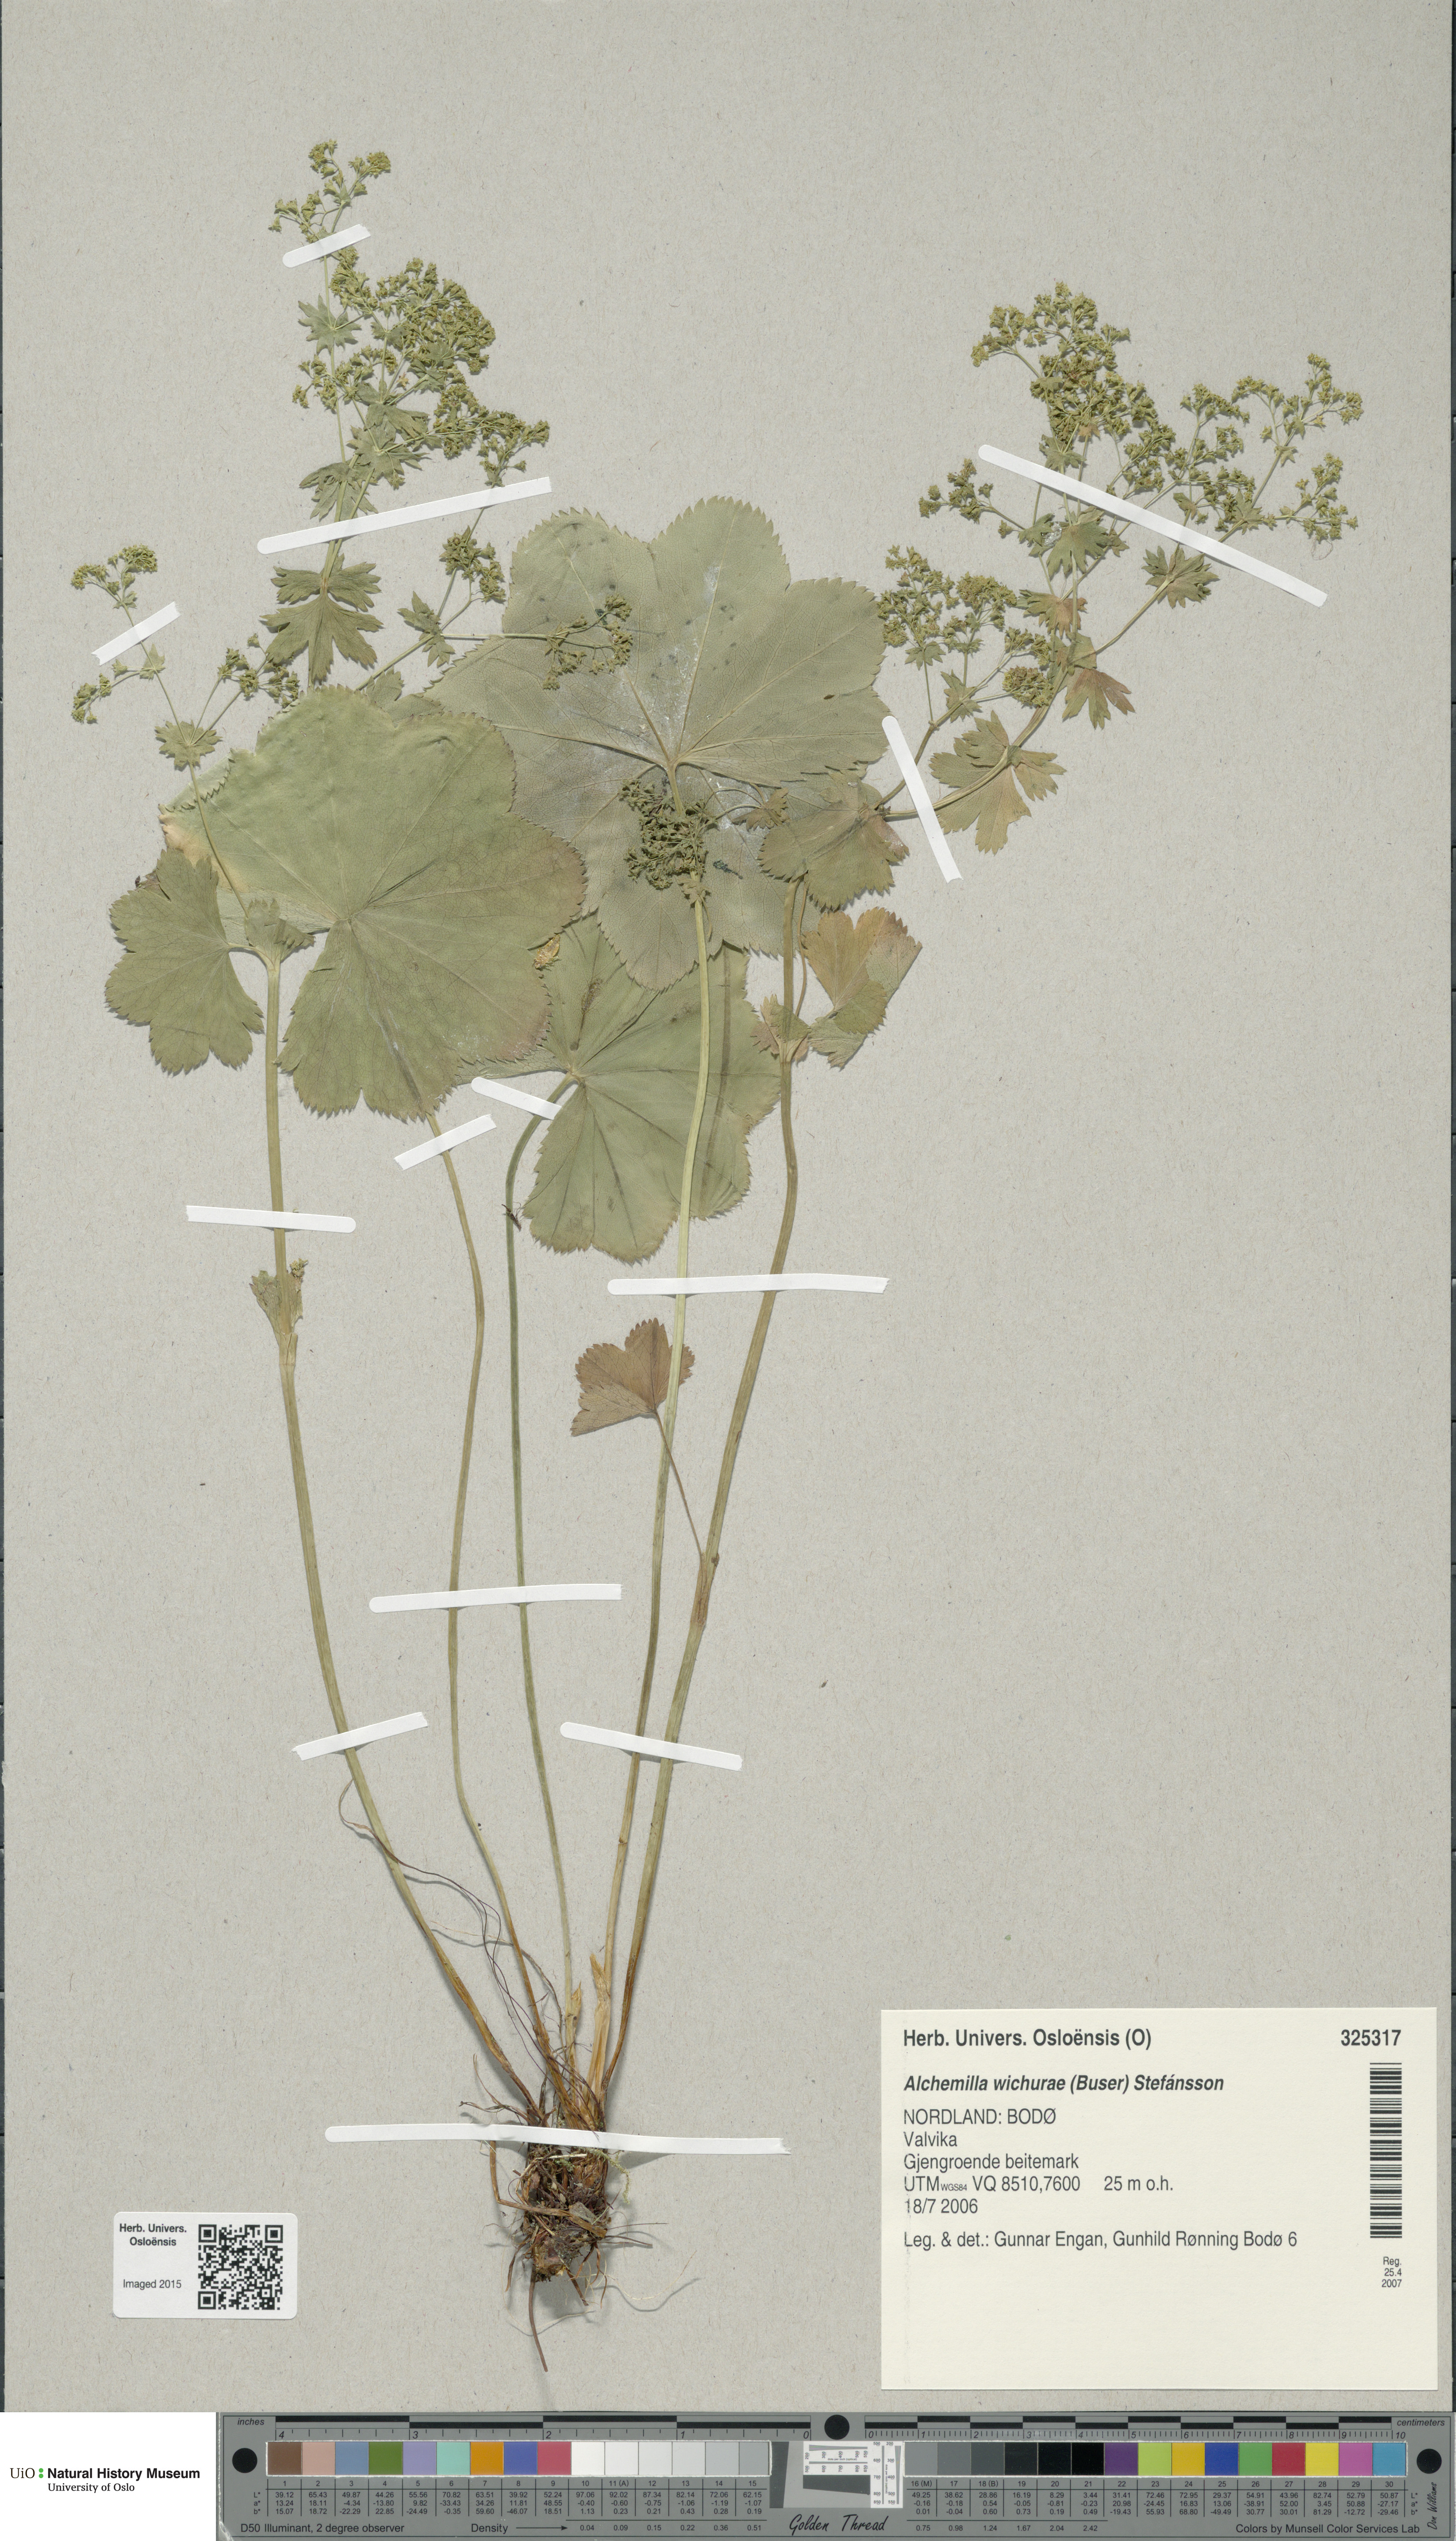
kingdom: Plantae
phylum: Tracheophyta
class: Magnoliopsida
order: Rosales
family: Rosaceae
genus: Alchemilla
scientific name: Alchemilla wichurae
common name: Rock lady's mantle
